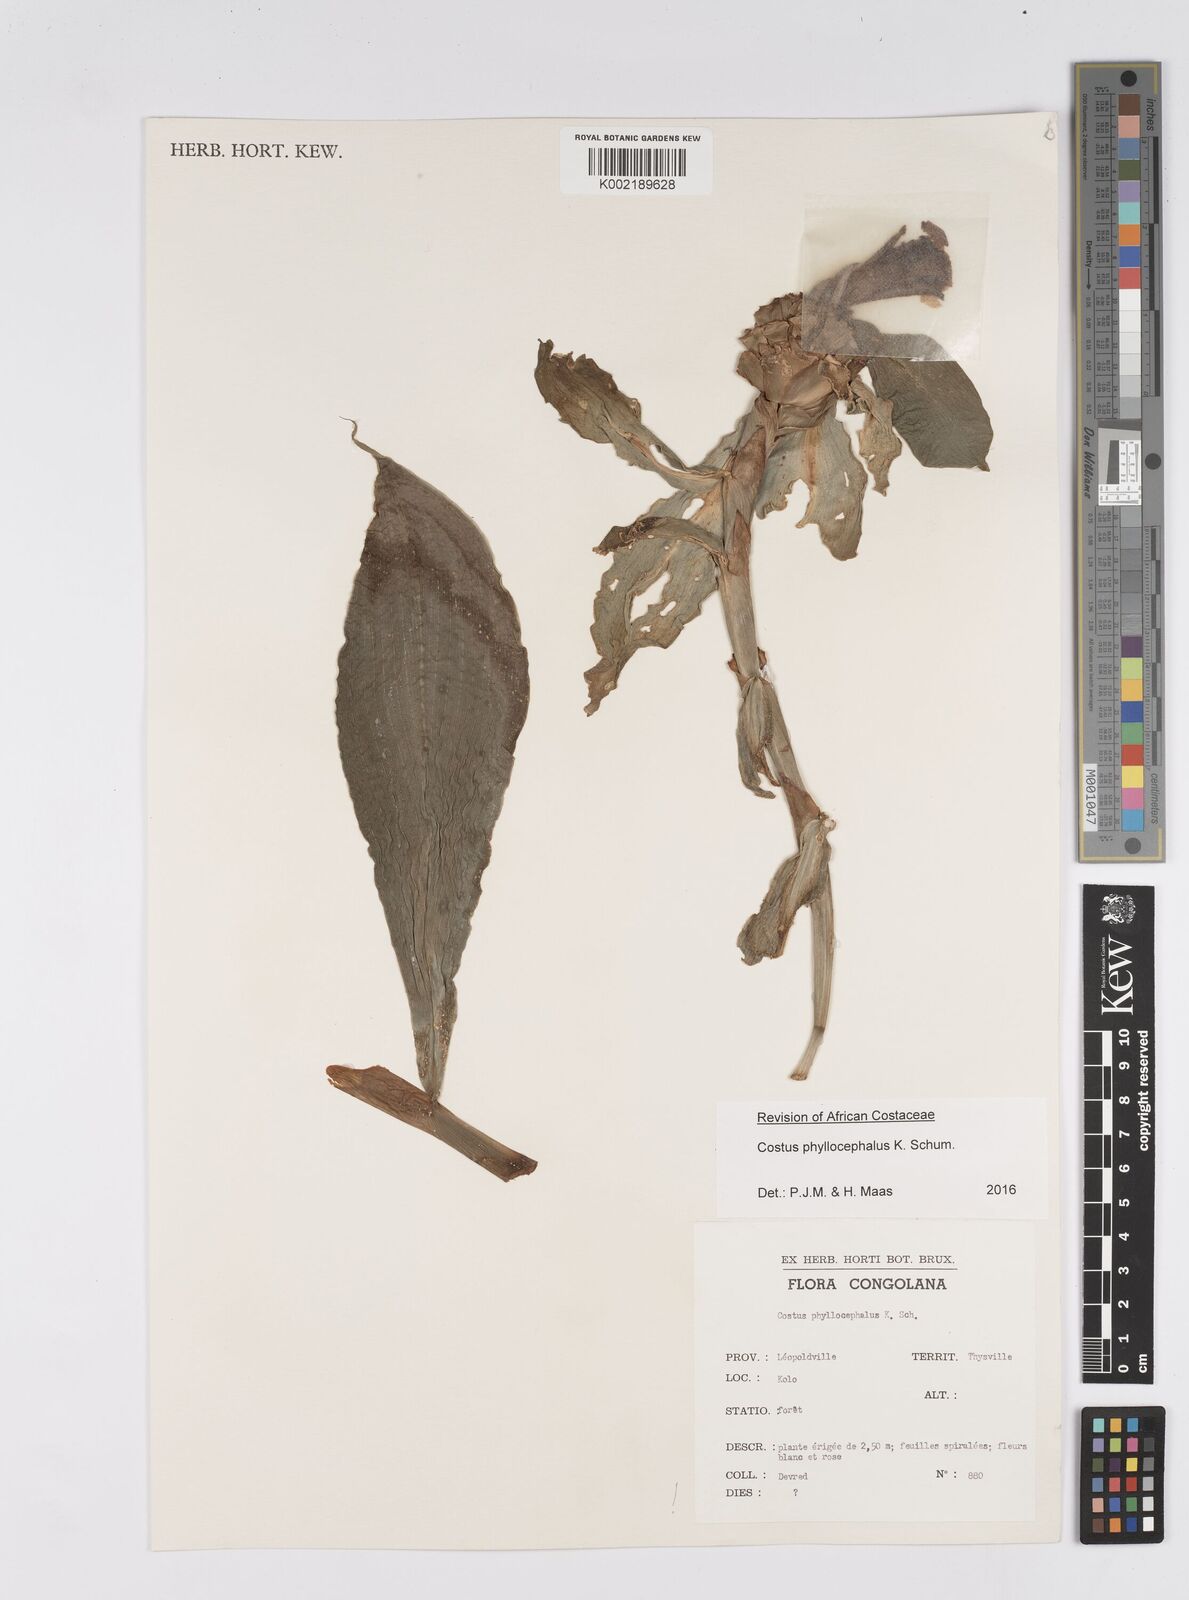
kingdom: Plantae
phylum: Tracheophyta
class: Liliopsida
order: Zingiberales
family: Costaceae
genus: Costus
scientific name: Costus phyllocephalus
